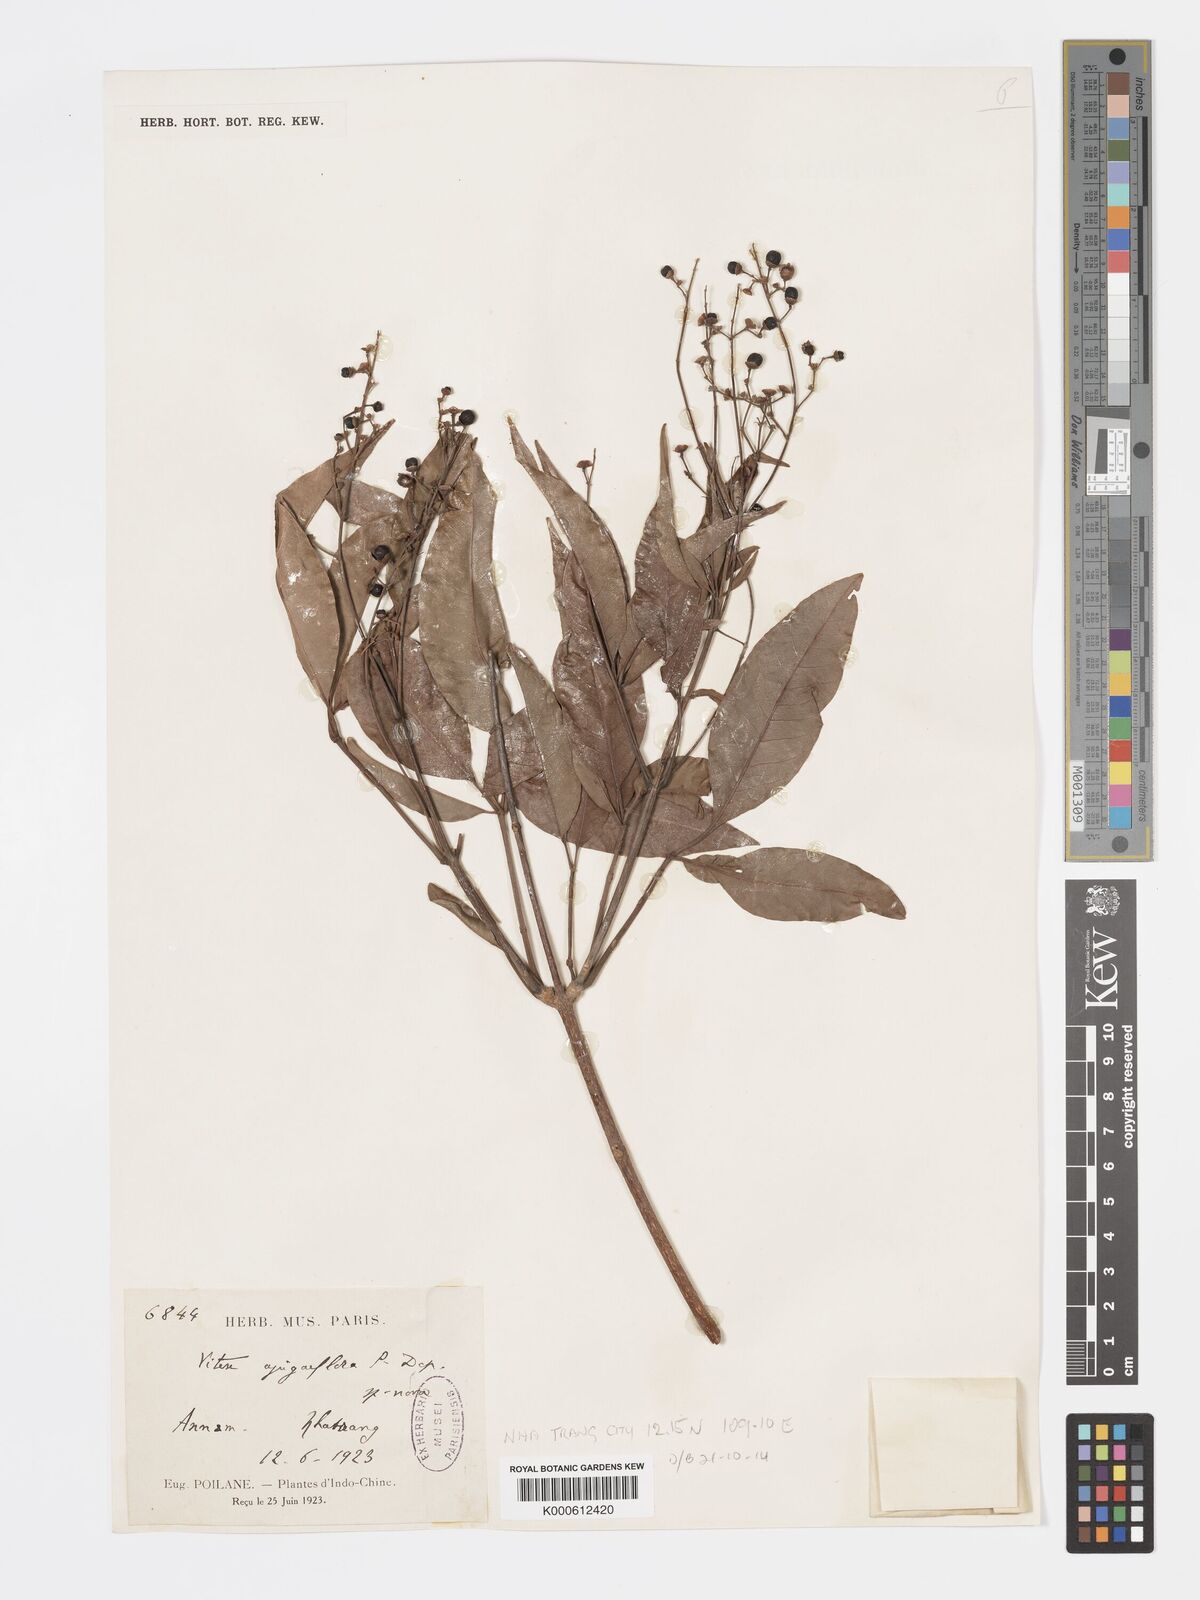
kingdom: Plantae
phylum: Tracheophyta
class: Magnoliopsida
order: Lamiales
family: Lamiaceae
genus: Vitex
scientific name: Vitex ajugiflora
